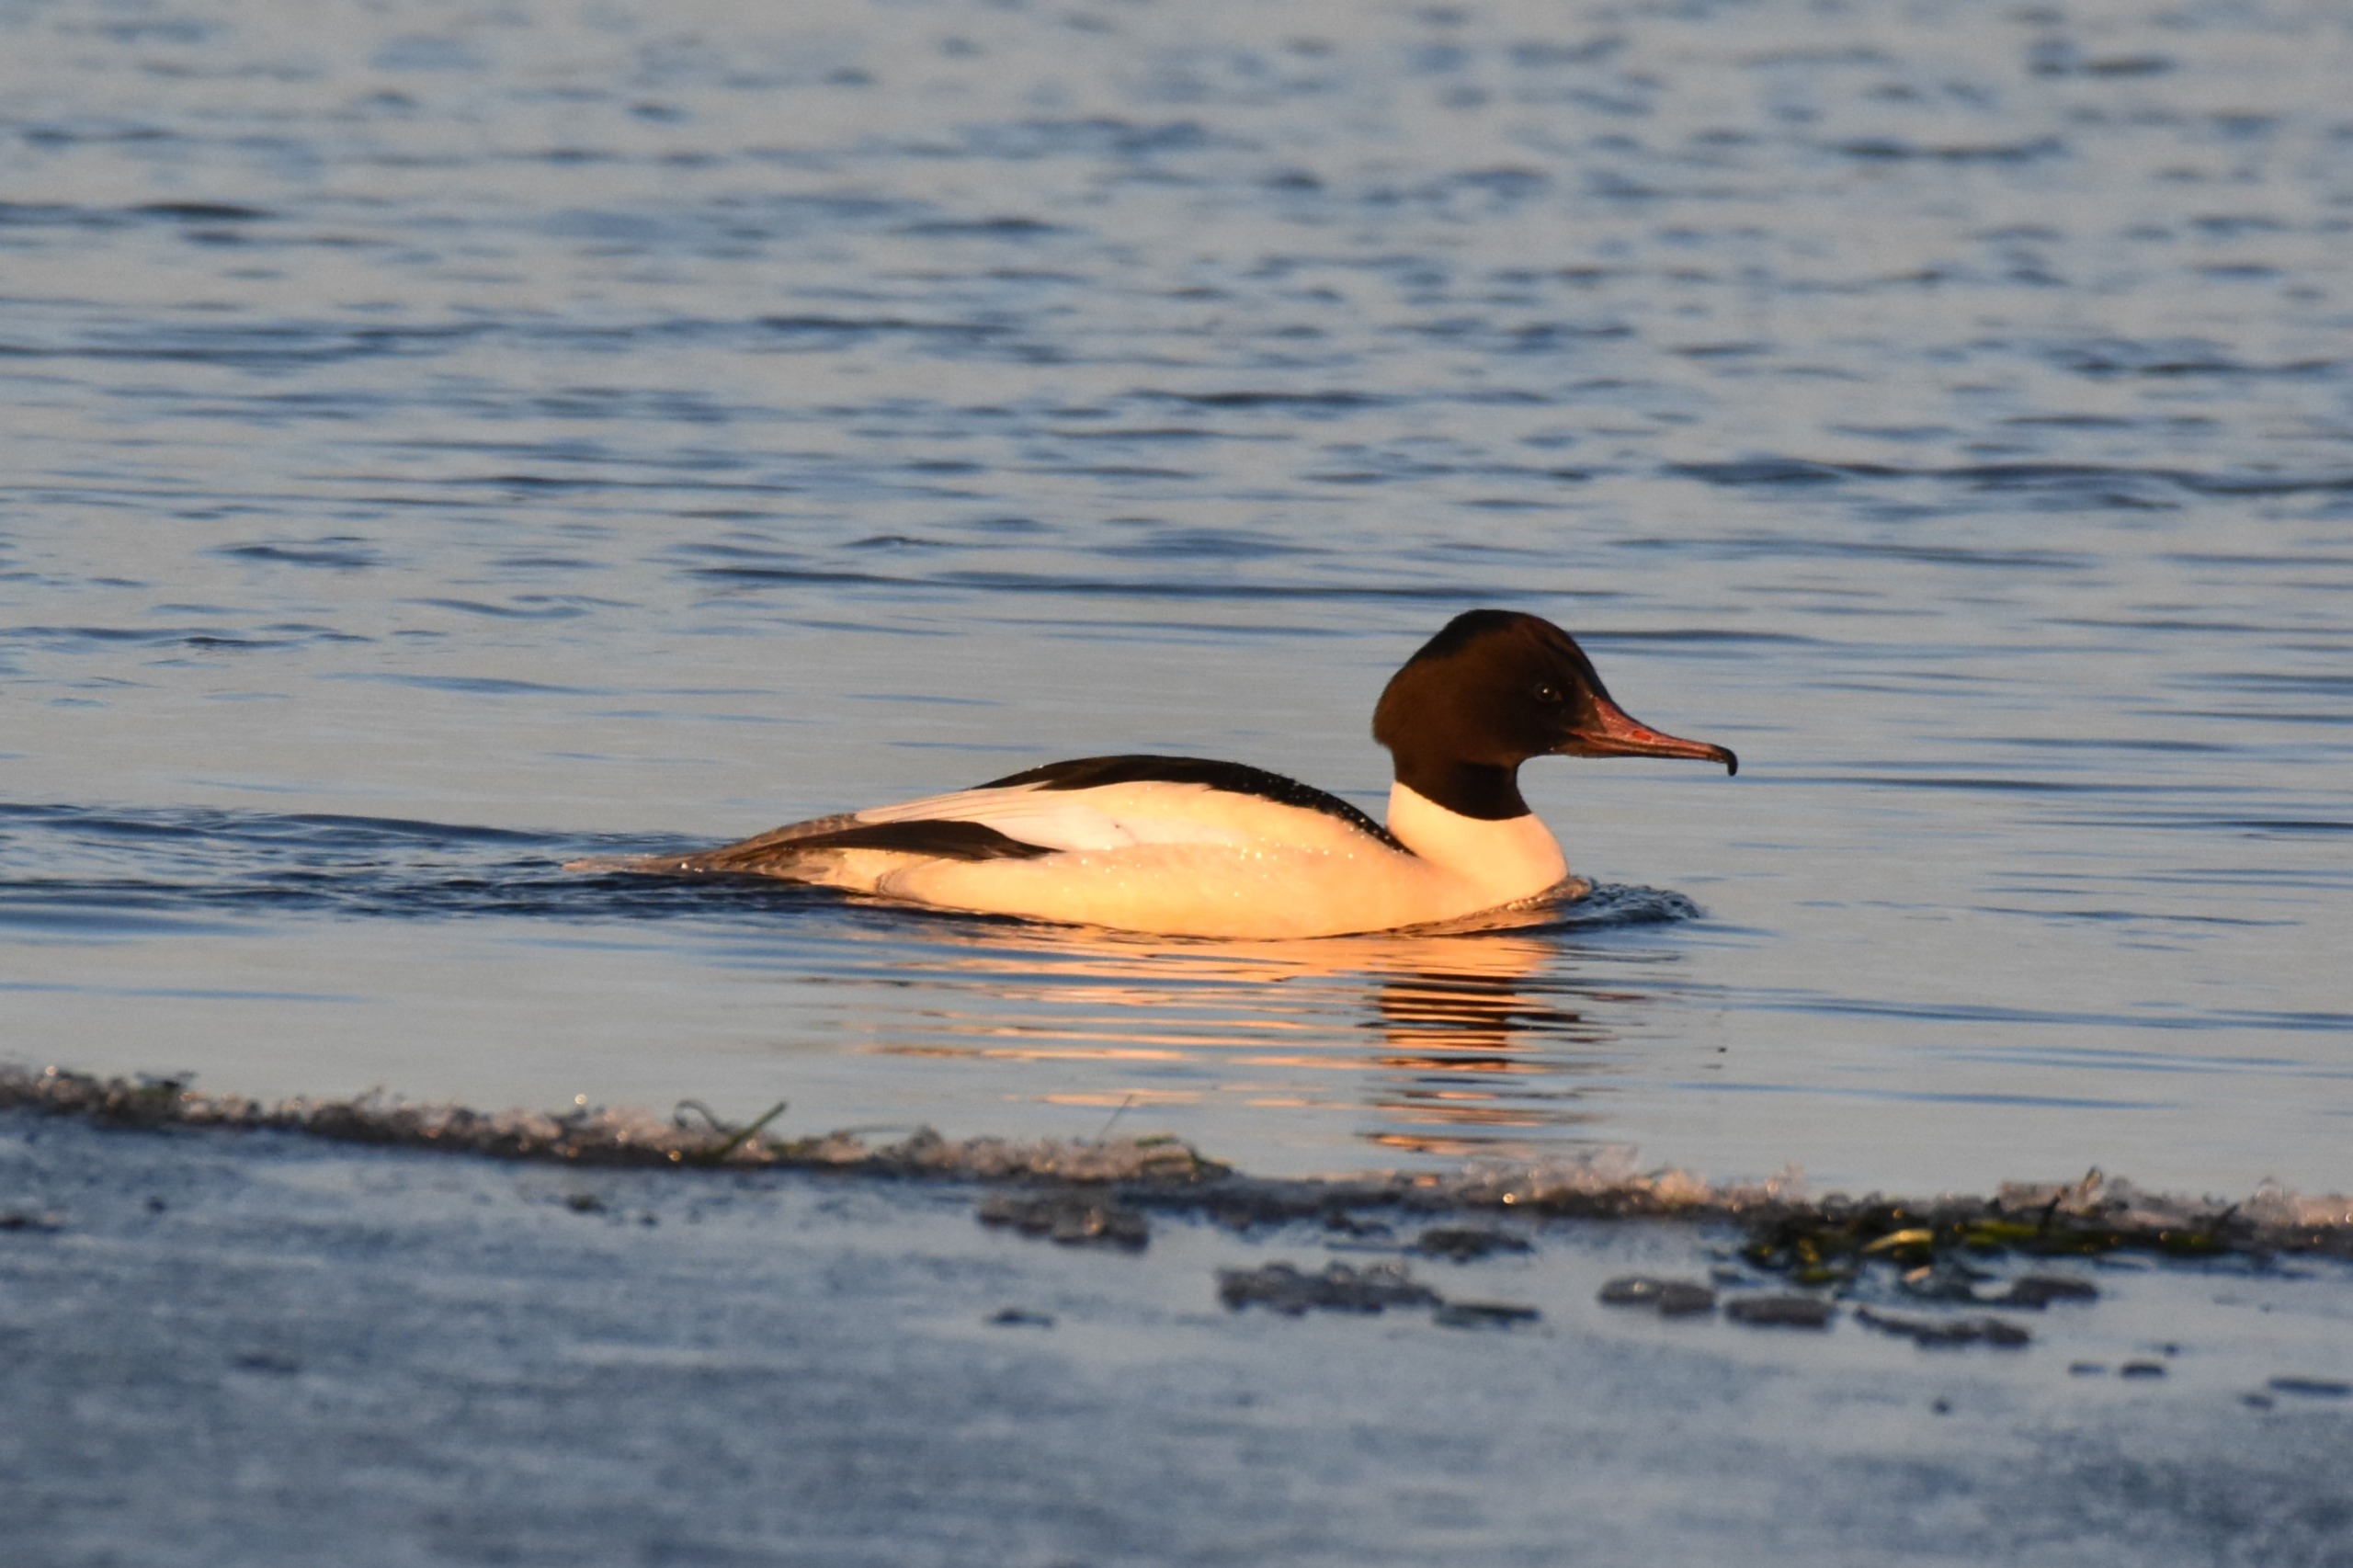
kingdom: Animalia
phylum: Chordata
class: Aves
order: Anseriformes
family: Anatidae
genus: Mergus
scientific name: Mergus merganser
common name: Stor skallesluger
